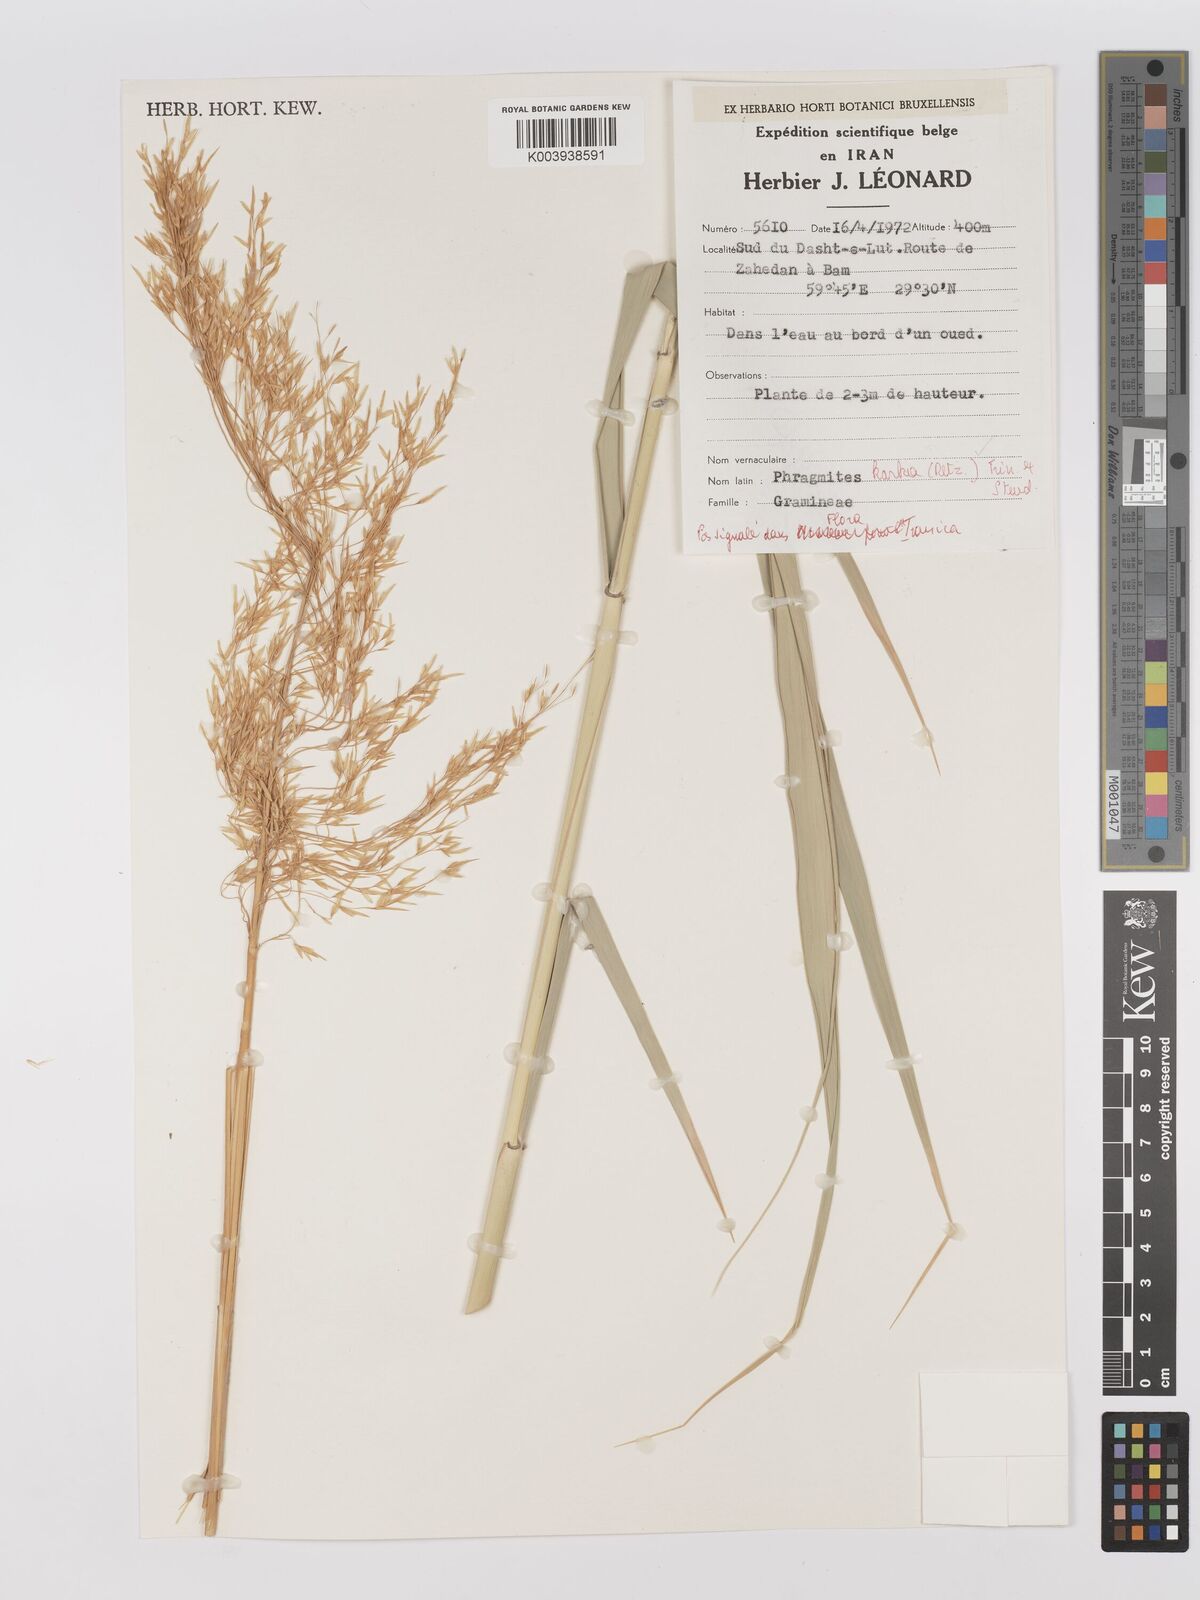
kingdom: Plantae
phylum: Tracheophyta
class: Liliopsida
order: Poales
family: Poaceae
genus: Phragmites
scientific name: Phragmites karka
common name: Tropical reed
